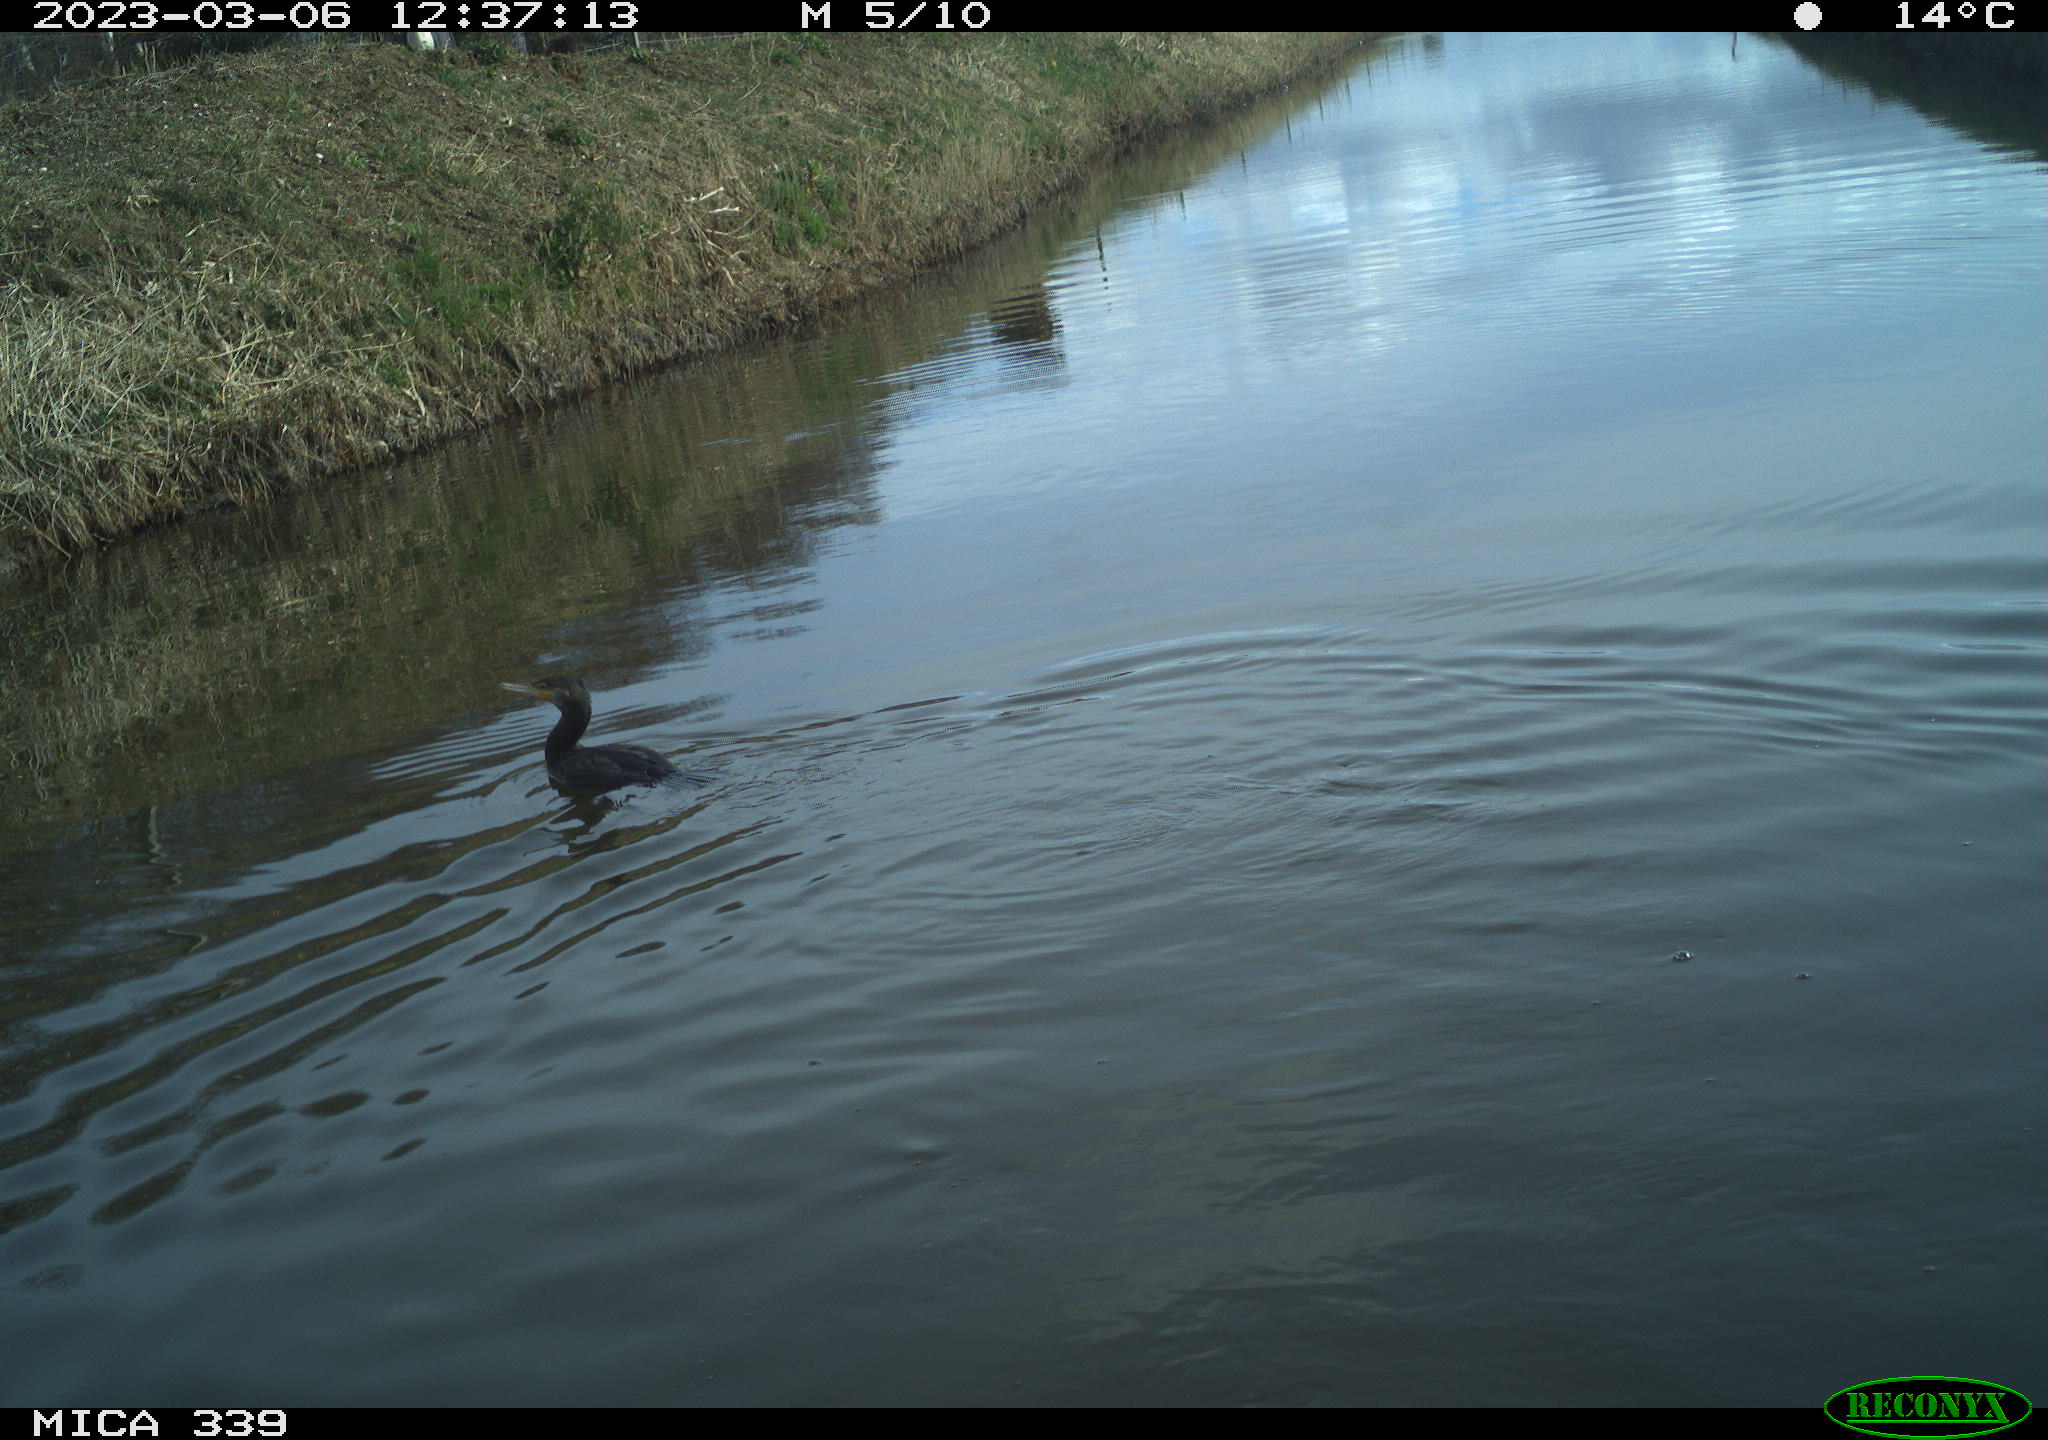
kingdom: Animalia
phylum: Chordata
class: Aves
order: Suliformes
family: Phalacrocoracidae
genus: Phalacrocorax
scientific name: Phalacrocorax carbo
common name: Great cormorant
